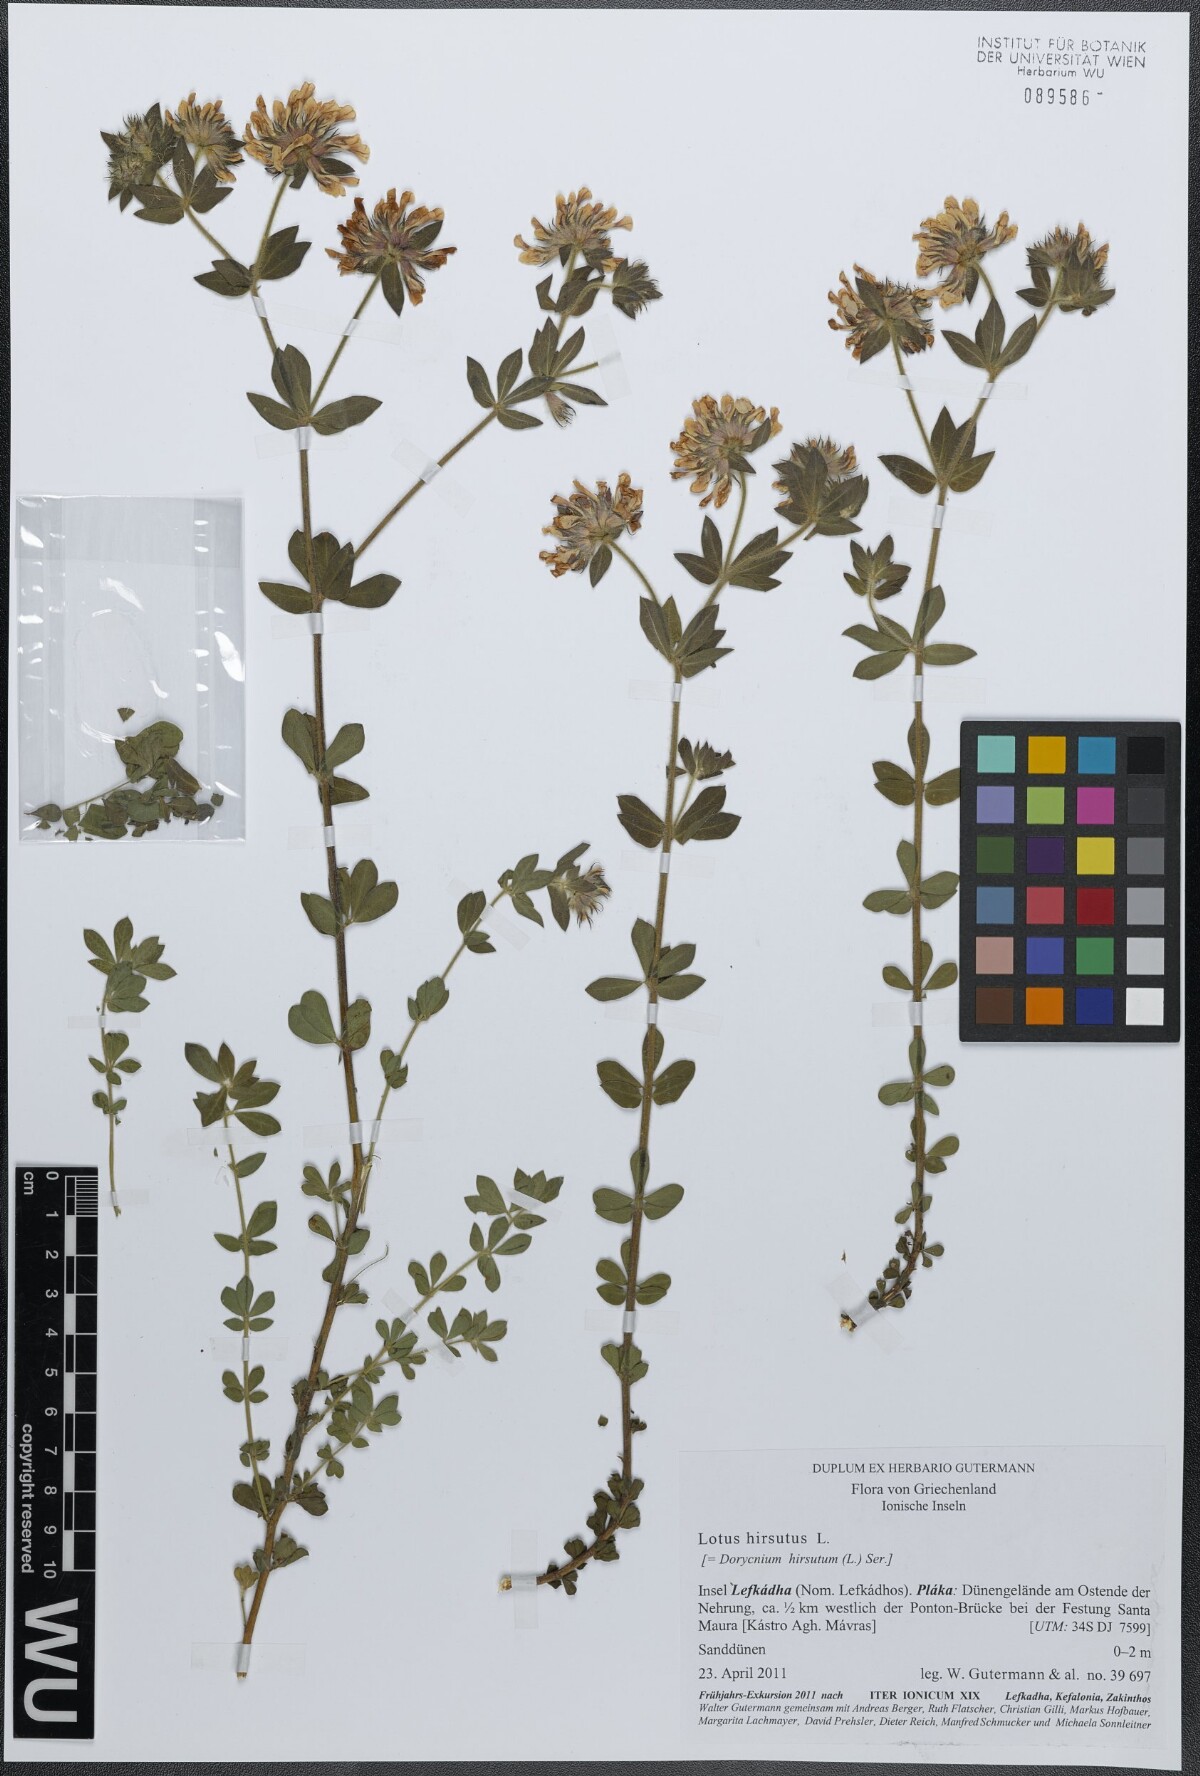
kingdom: Plantae
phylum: Tracheophyta
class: Magnoliopsida
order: Fabales
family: Fabaceae
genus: Lotus
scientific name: Lotus hirsutus
